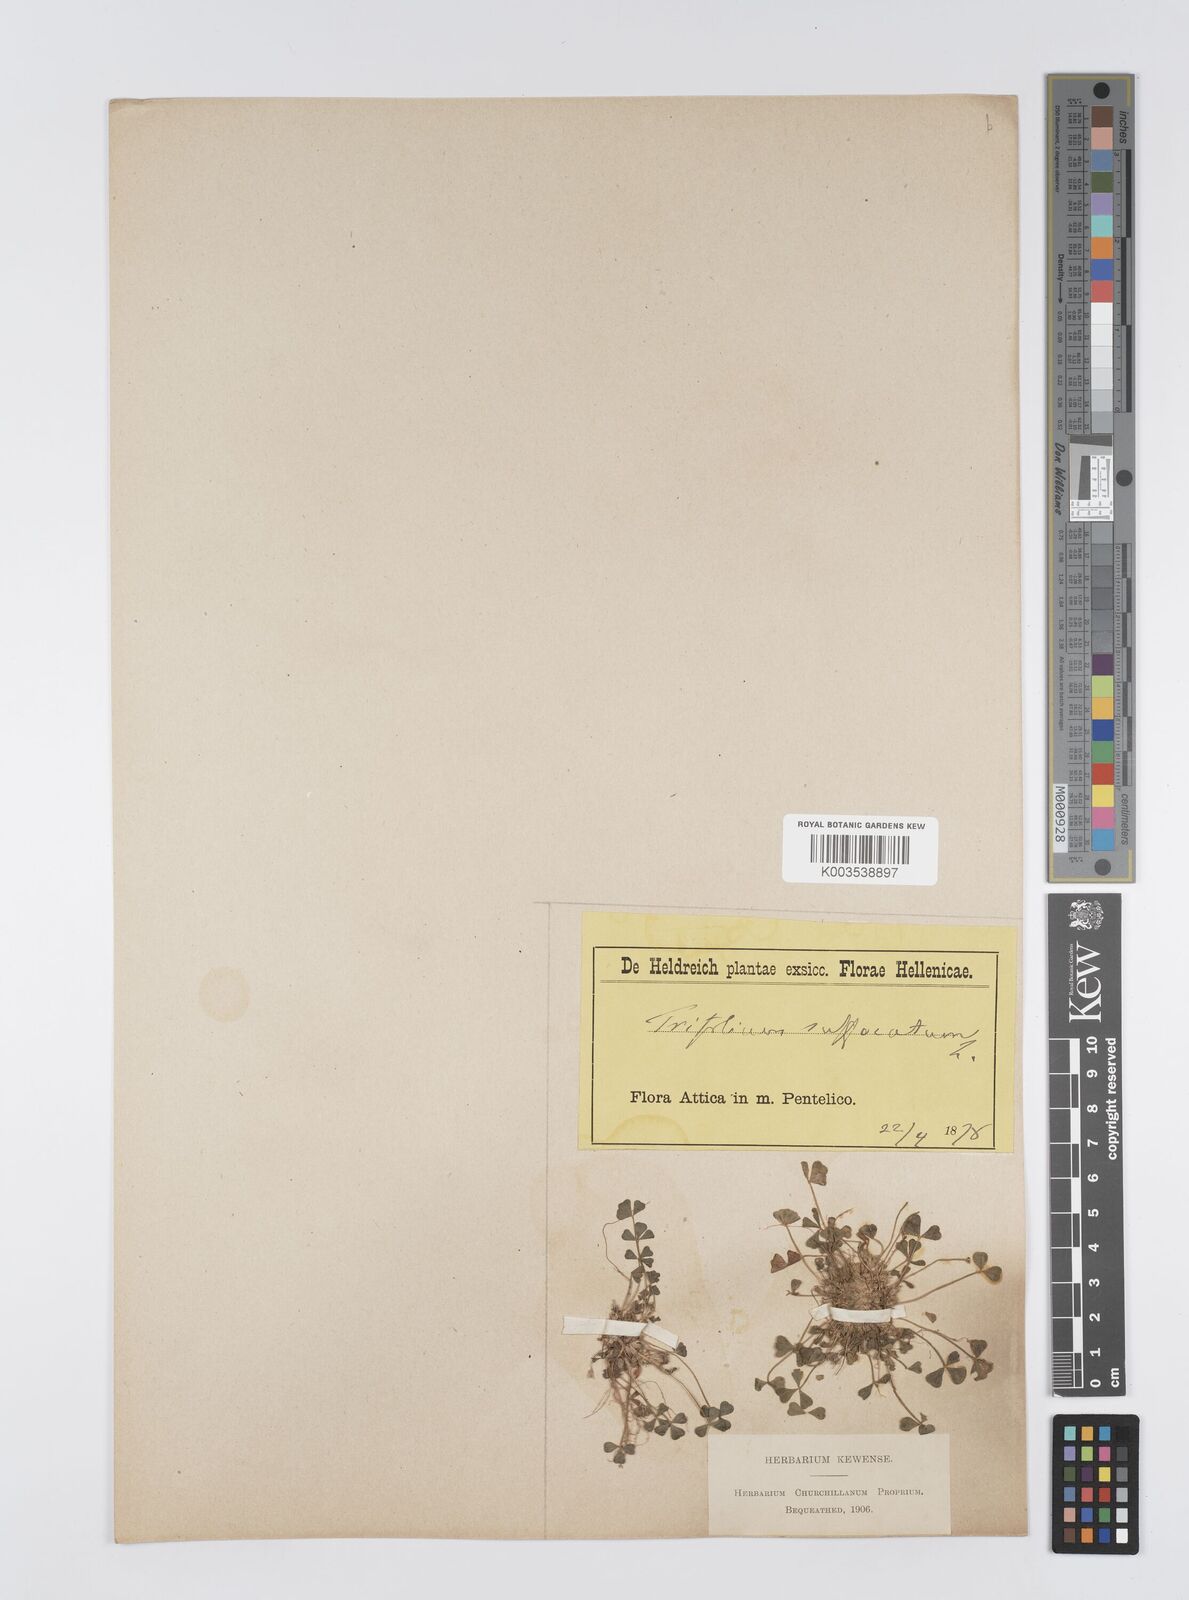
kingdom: Plantae
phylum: Tracheophyta
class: Magnoliopsida
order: Fabales
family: Fabaceae
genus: Trifolium
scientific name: Trifolium suffocatum
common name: Suffocated clover
